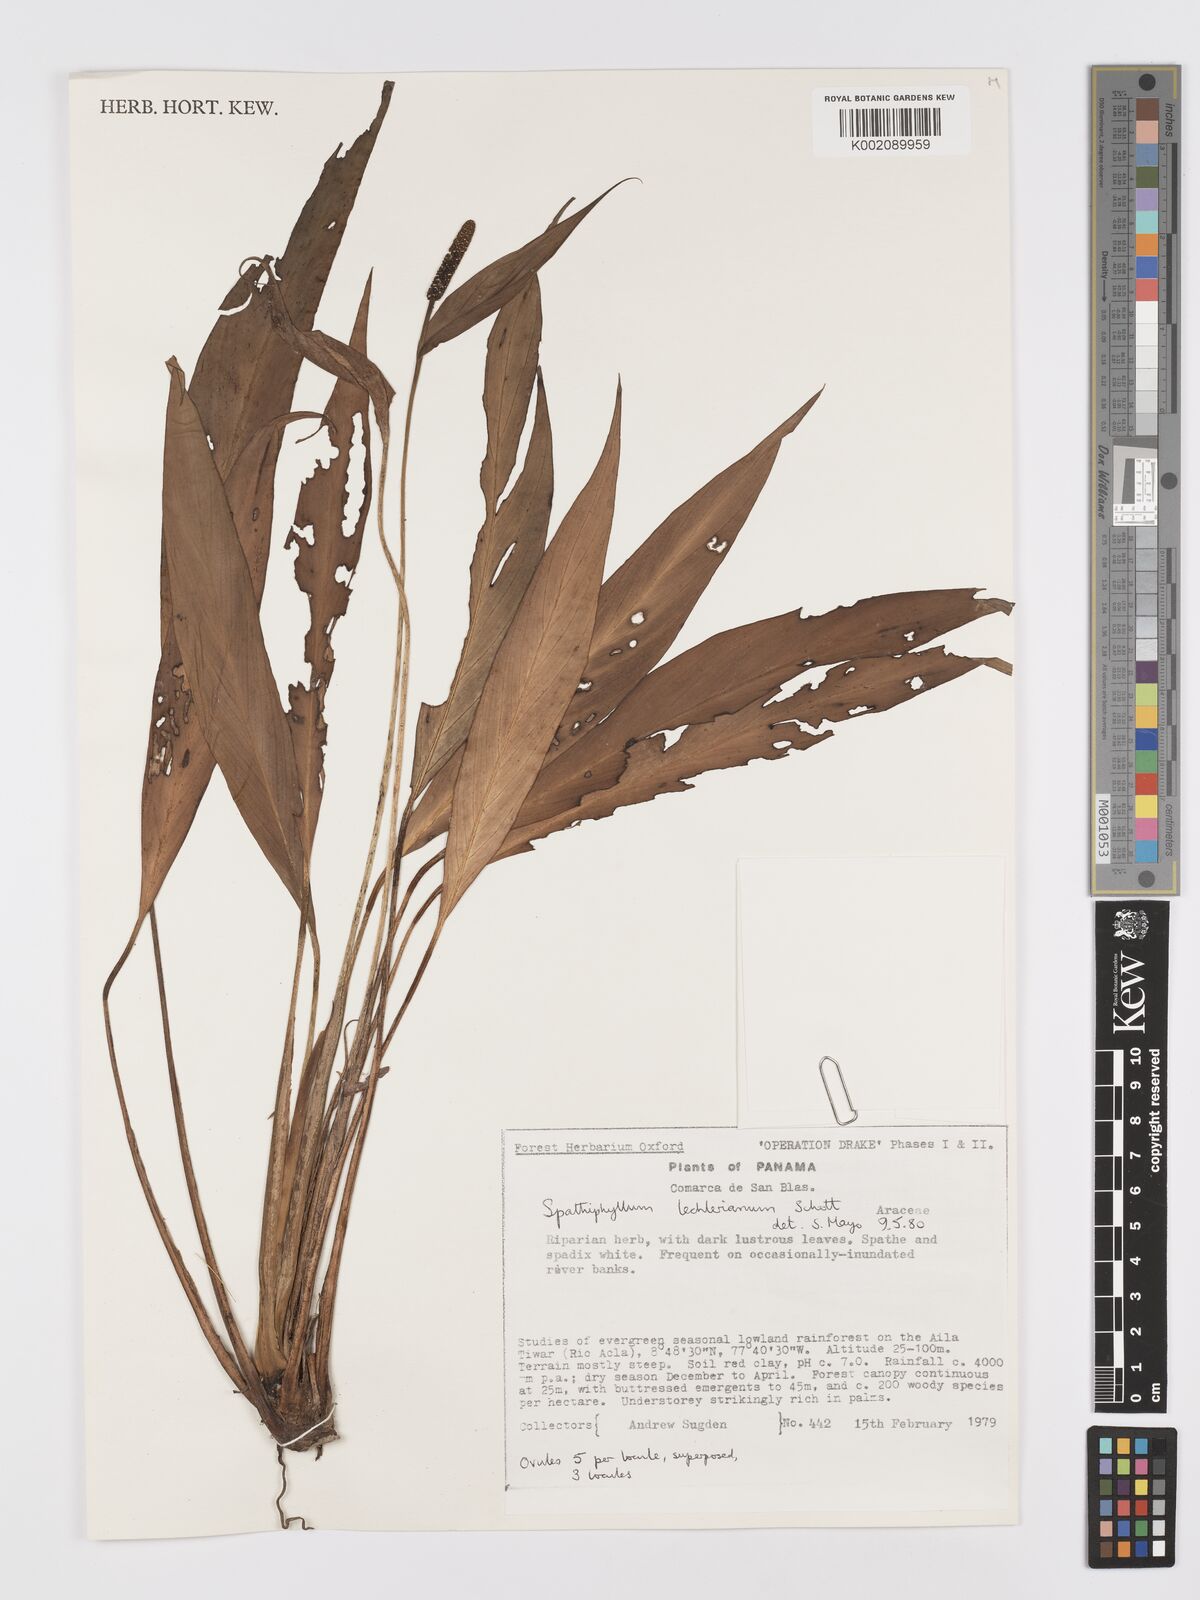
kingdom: Plantae
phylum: Tracheophyta
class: Liliopsida
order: Alismatales
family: Araceae
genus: Spathiphyllum
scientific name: Spathiphyllum lechlerianum
